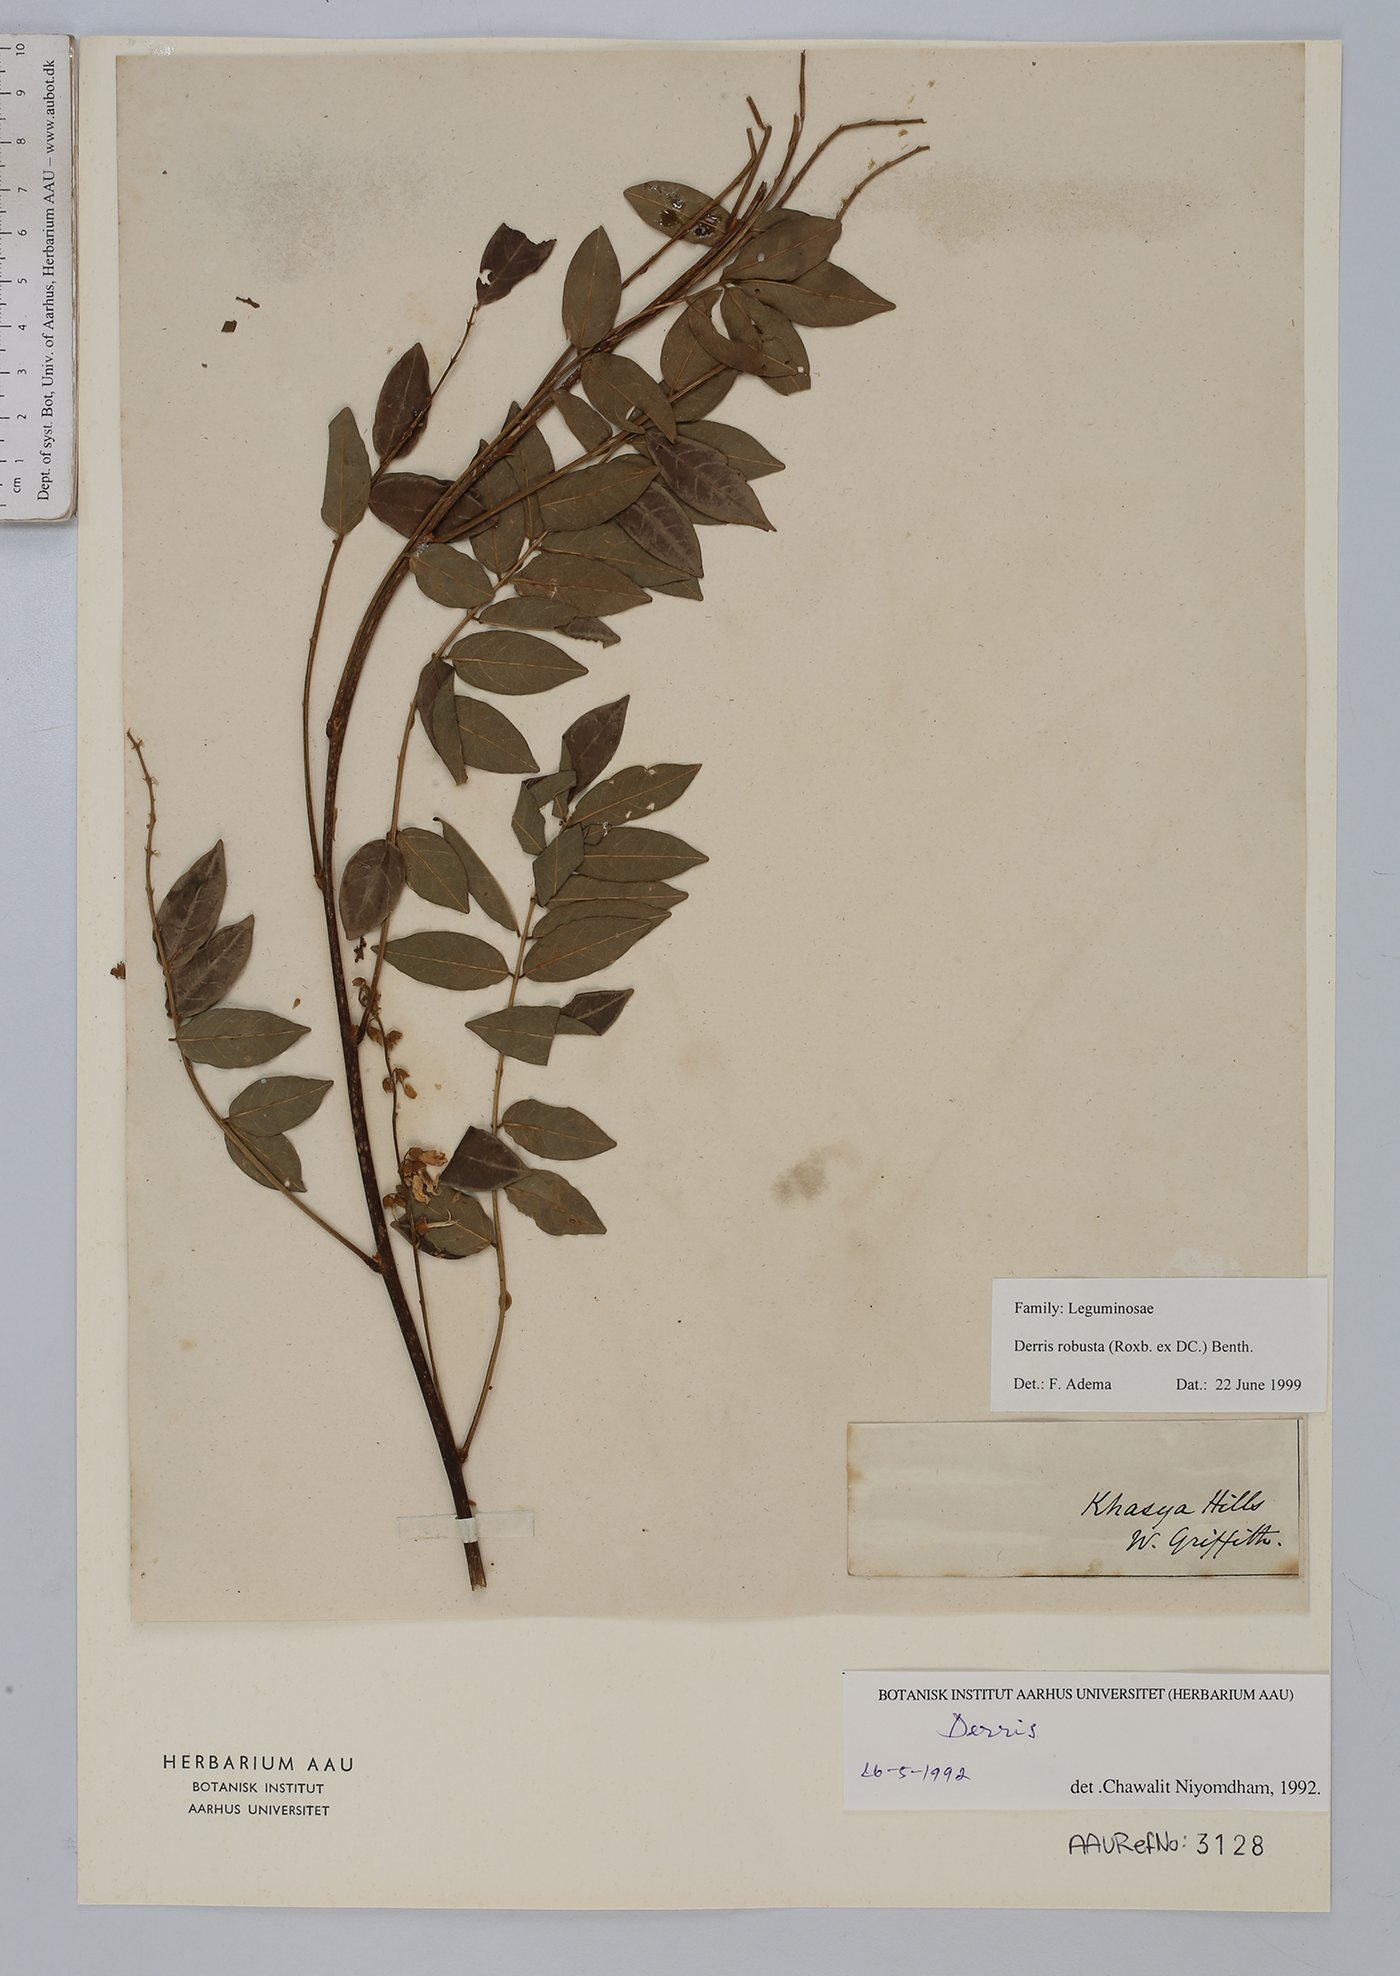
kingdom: Plantae
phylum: Tracheophyta
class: Magnoliopsida
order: Fabales
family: Fabaceae
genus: Brachypterum
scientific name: Brachypterum robustum
